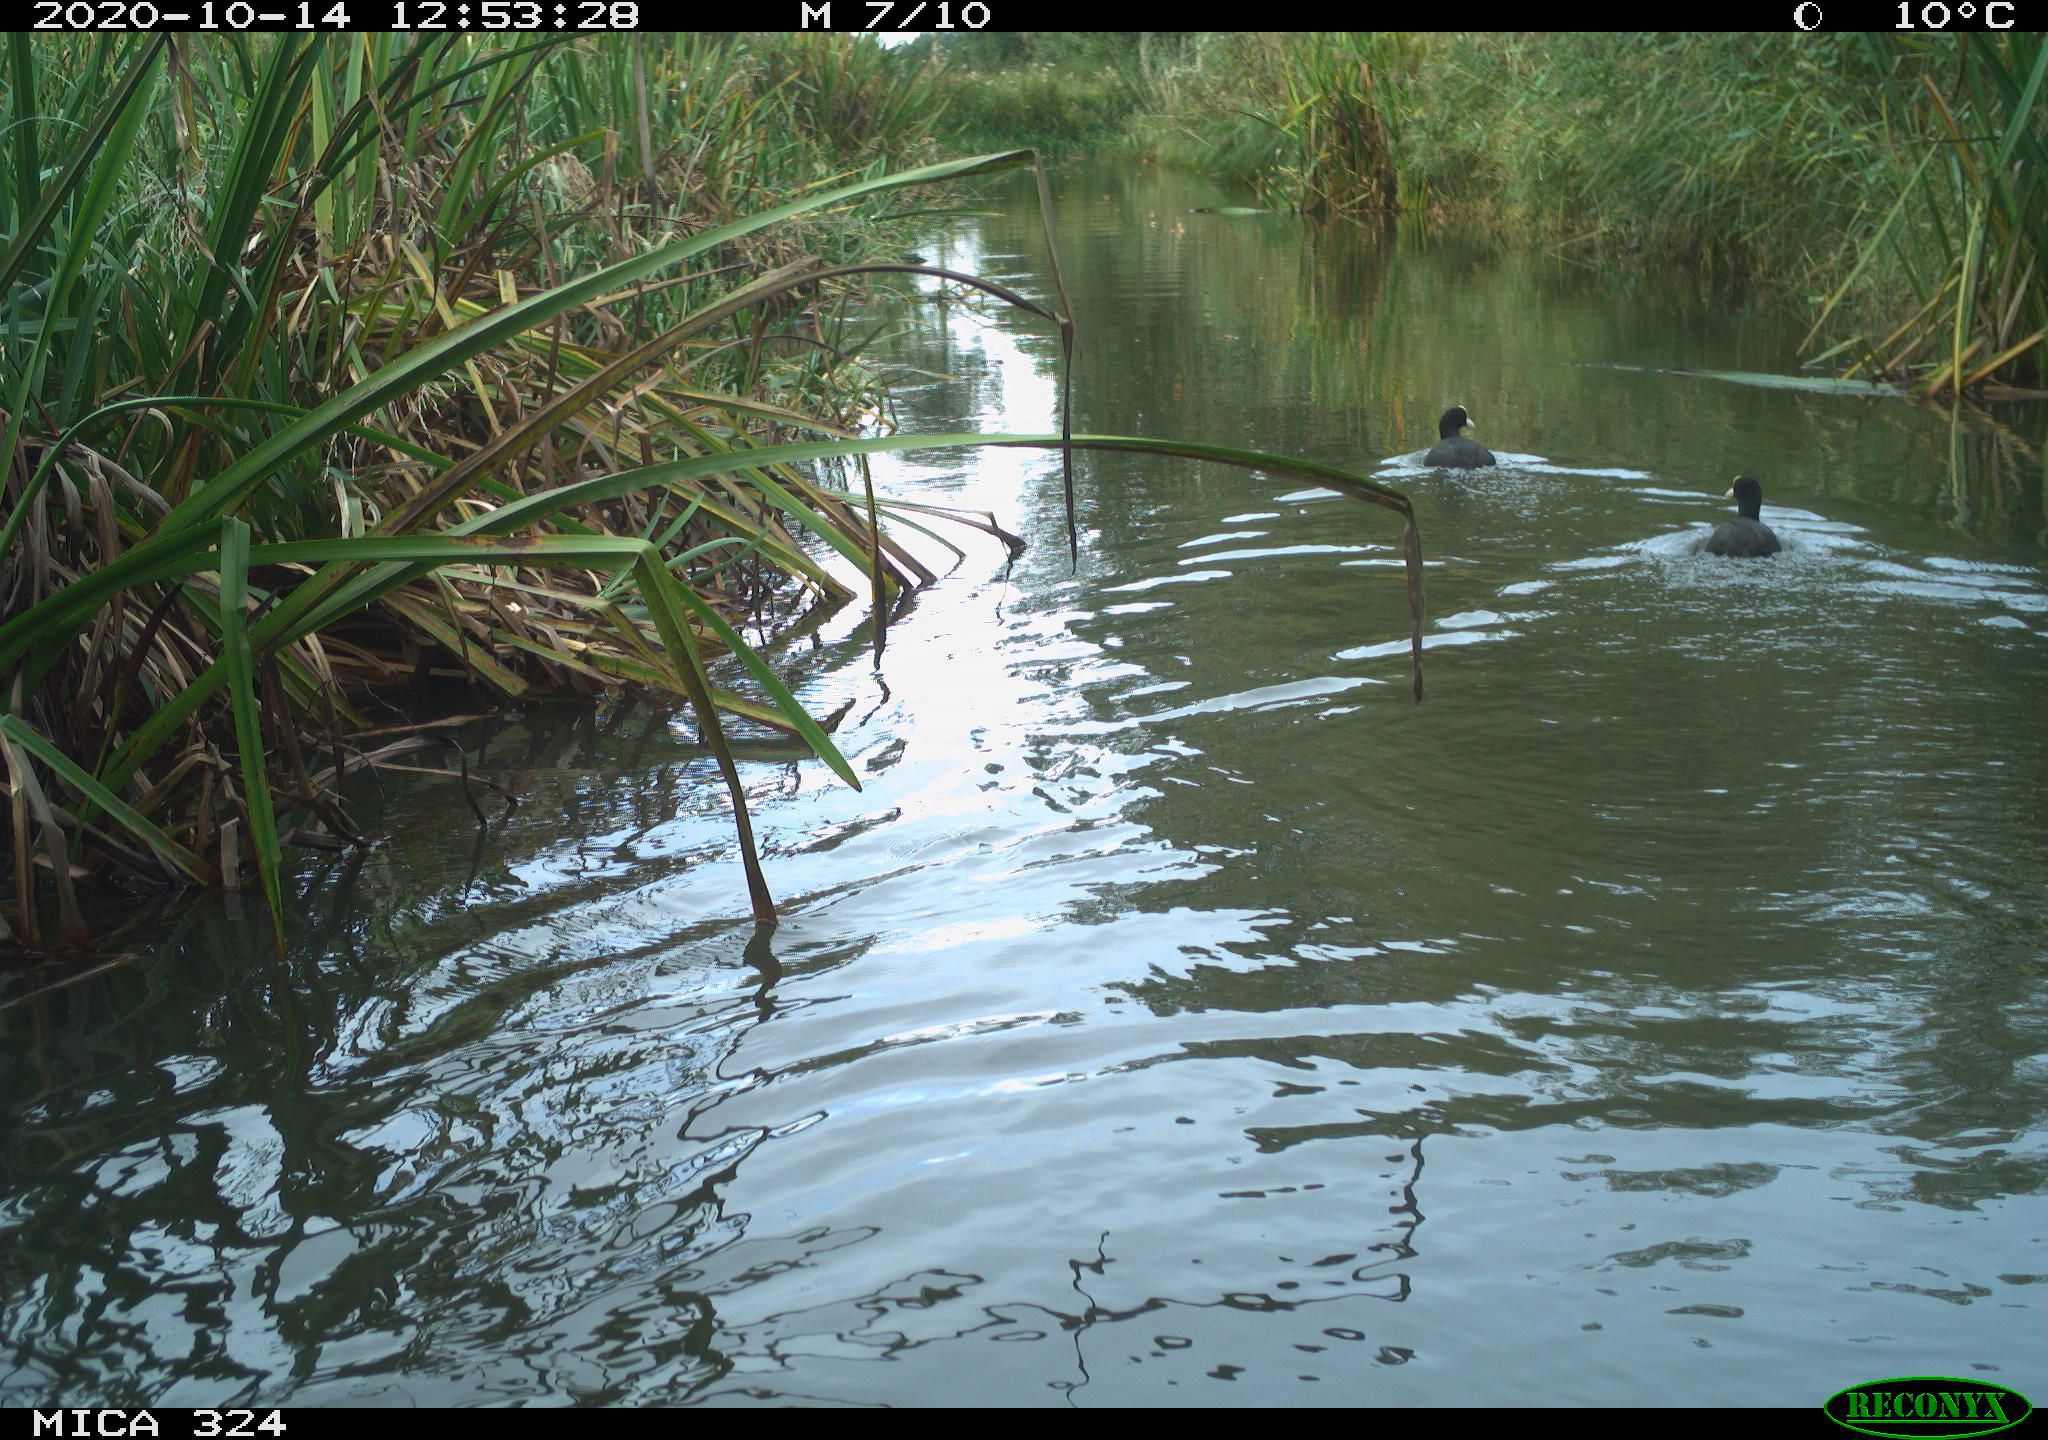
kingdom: Animalia
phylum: Chordata
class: Aves
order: Gruiformes
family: Rallidae
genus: Fulica
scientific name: Fulica atra
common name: Eurasian coot
